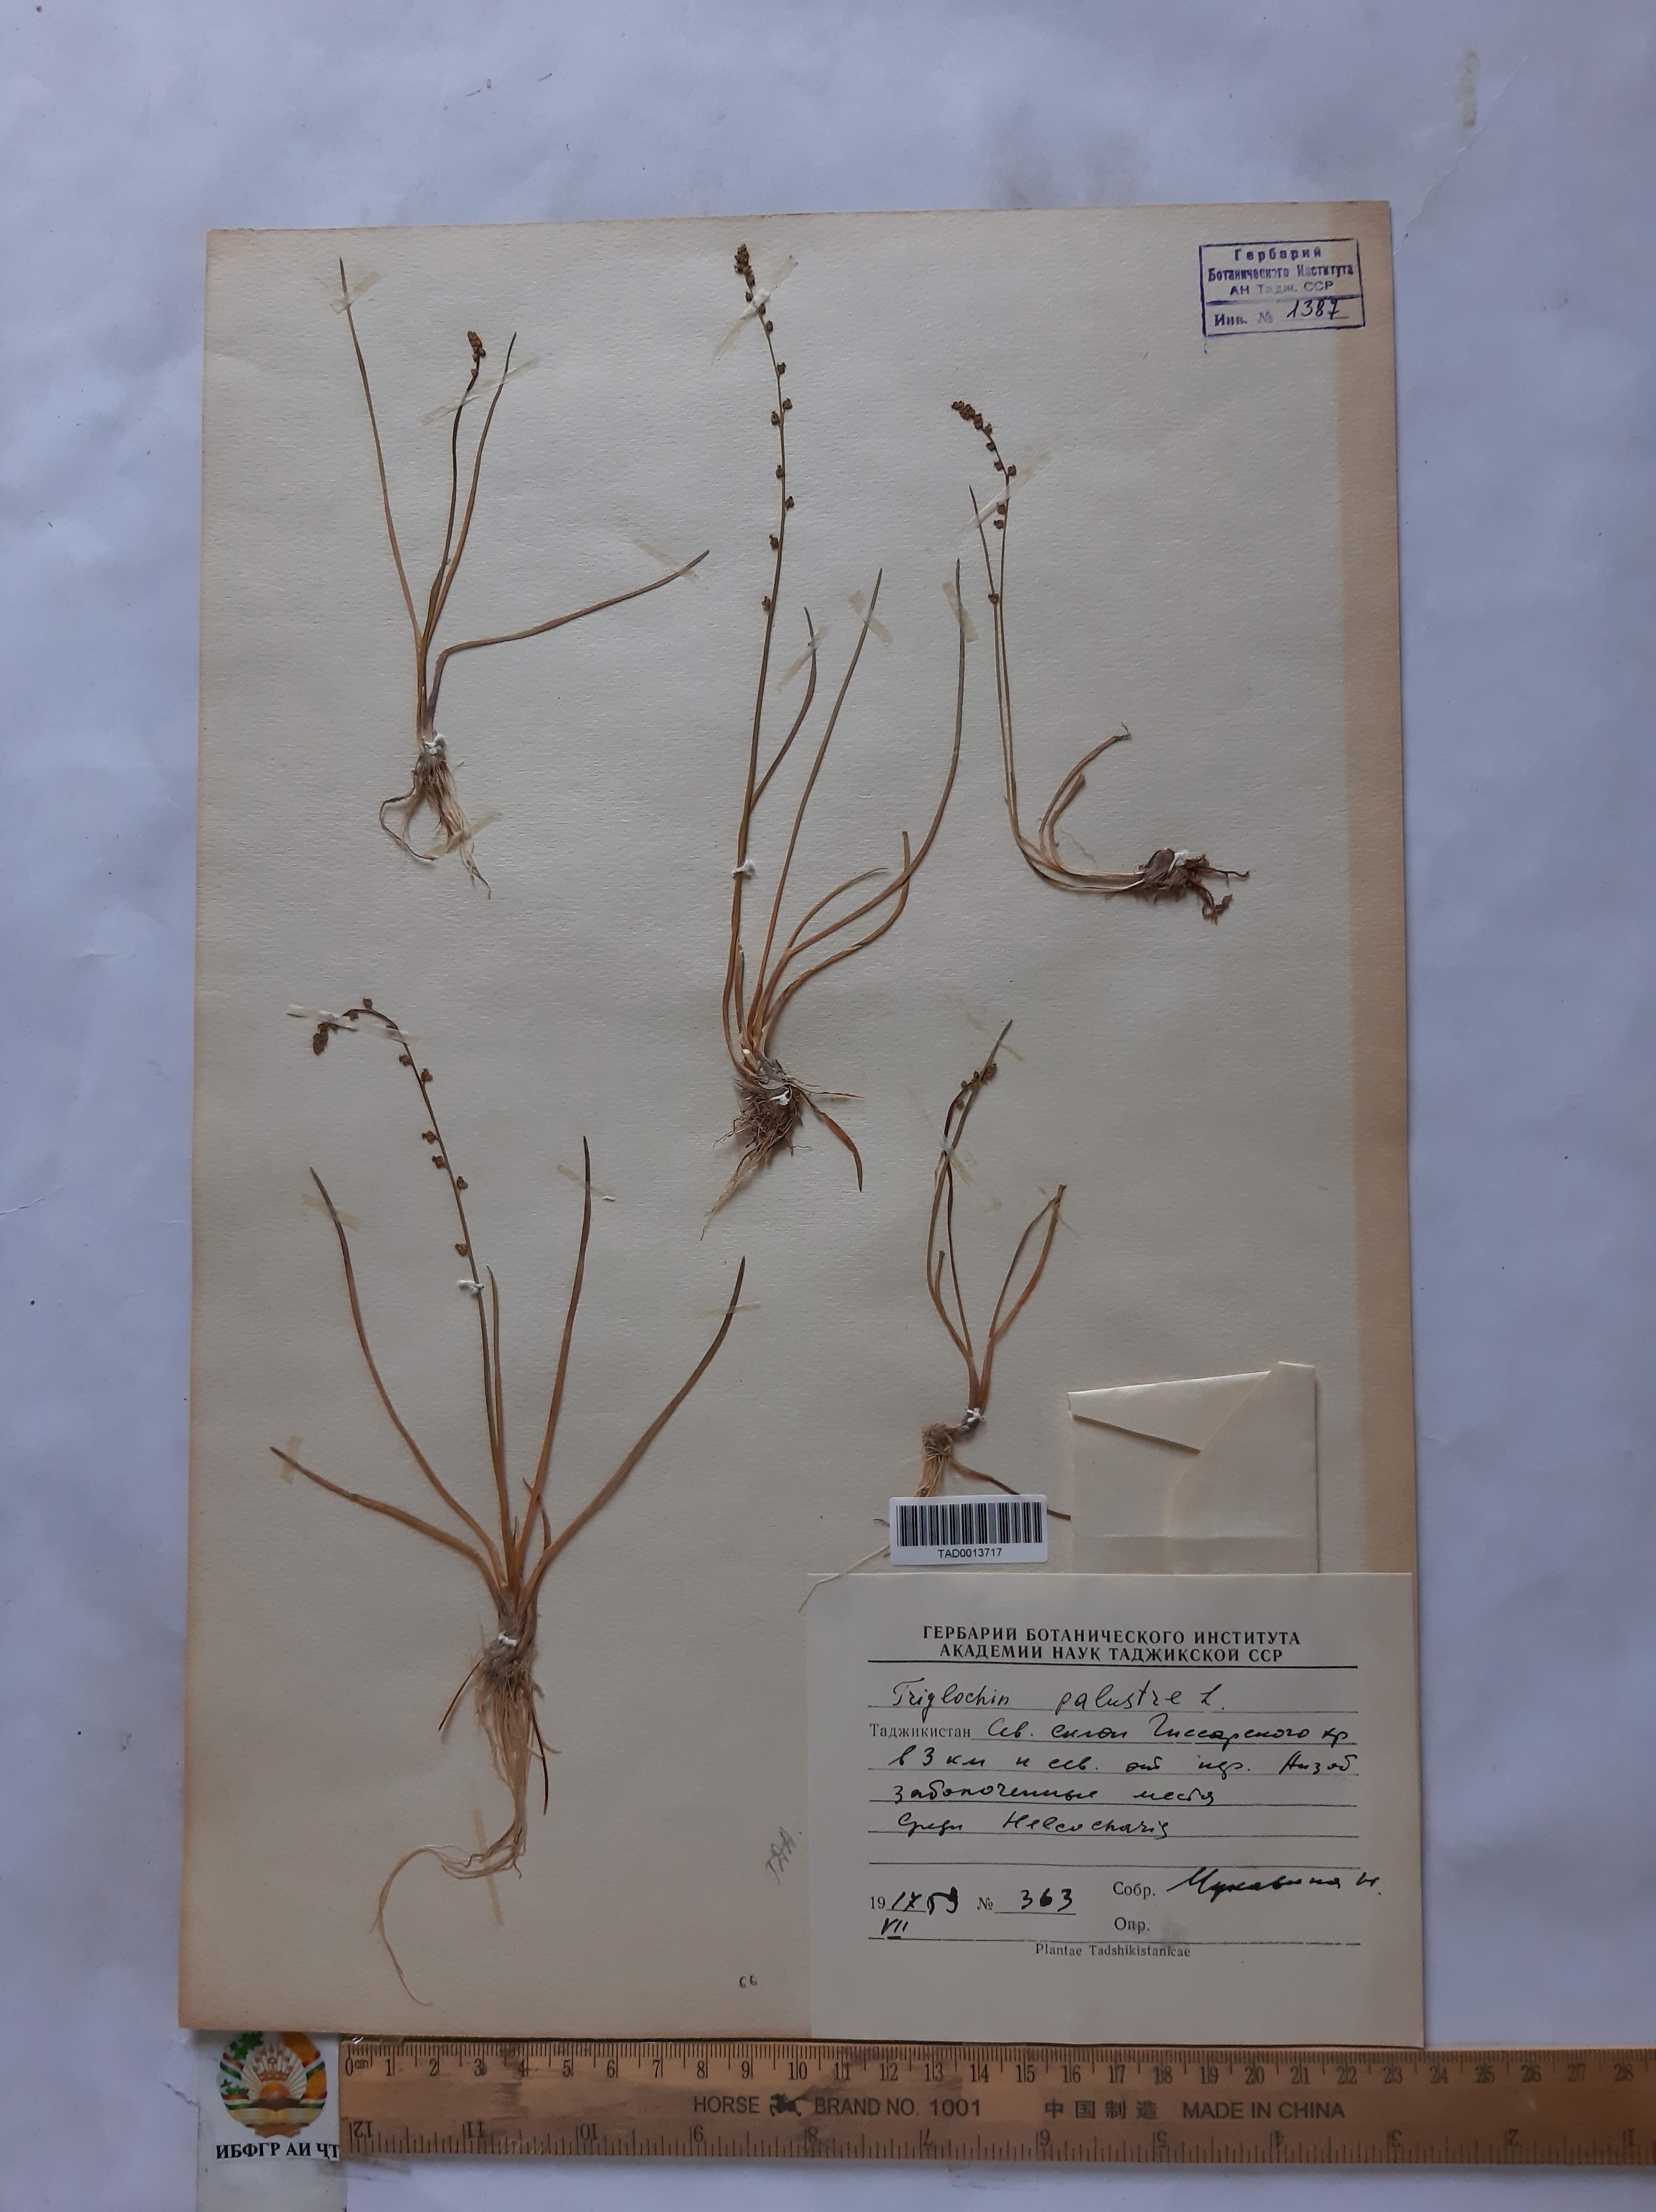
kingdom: Plantae
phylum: Tracheophyta
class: Liliopsida
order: Alismatales
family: Juncaginaceae
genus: Triglochin
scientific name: Triglochin palustris
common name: Marsh arrowgrass
